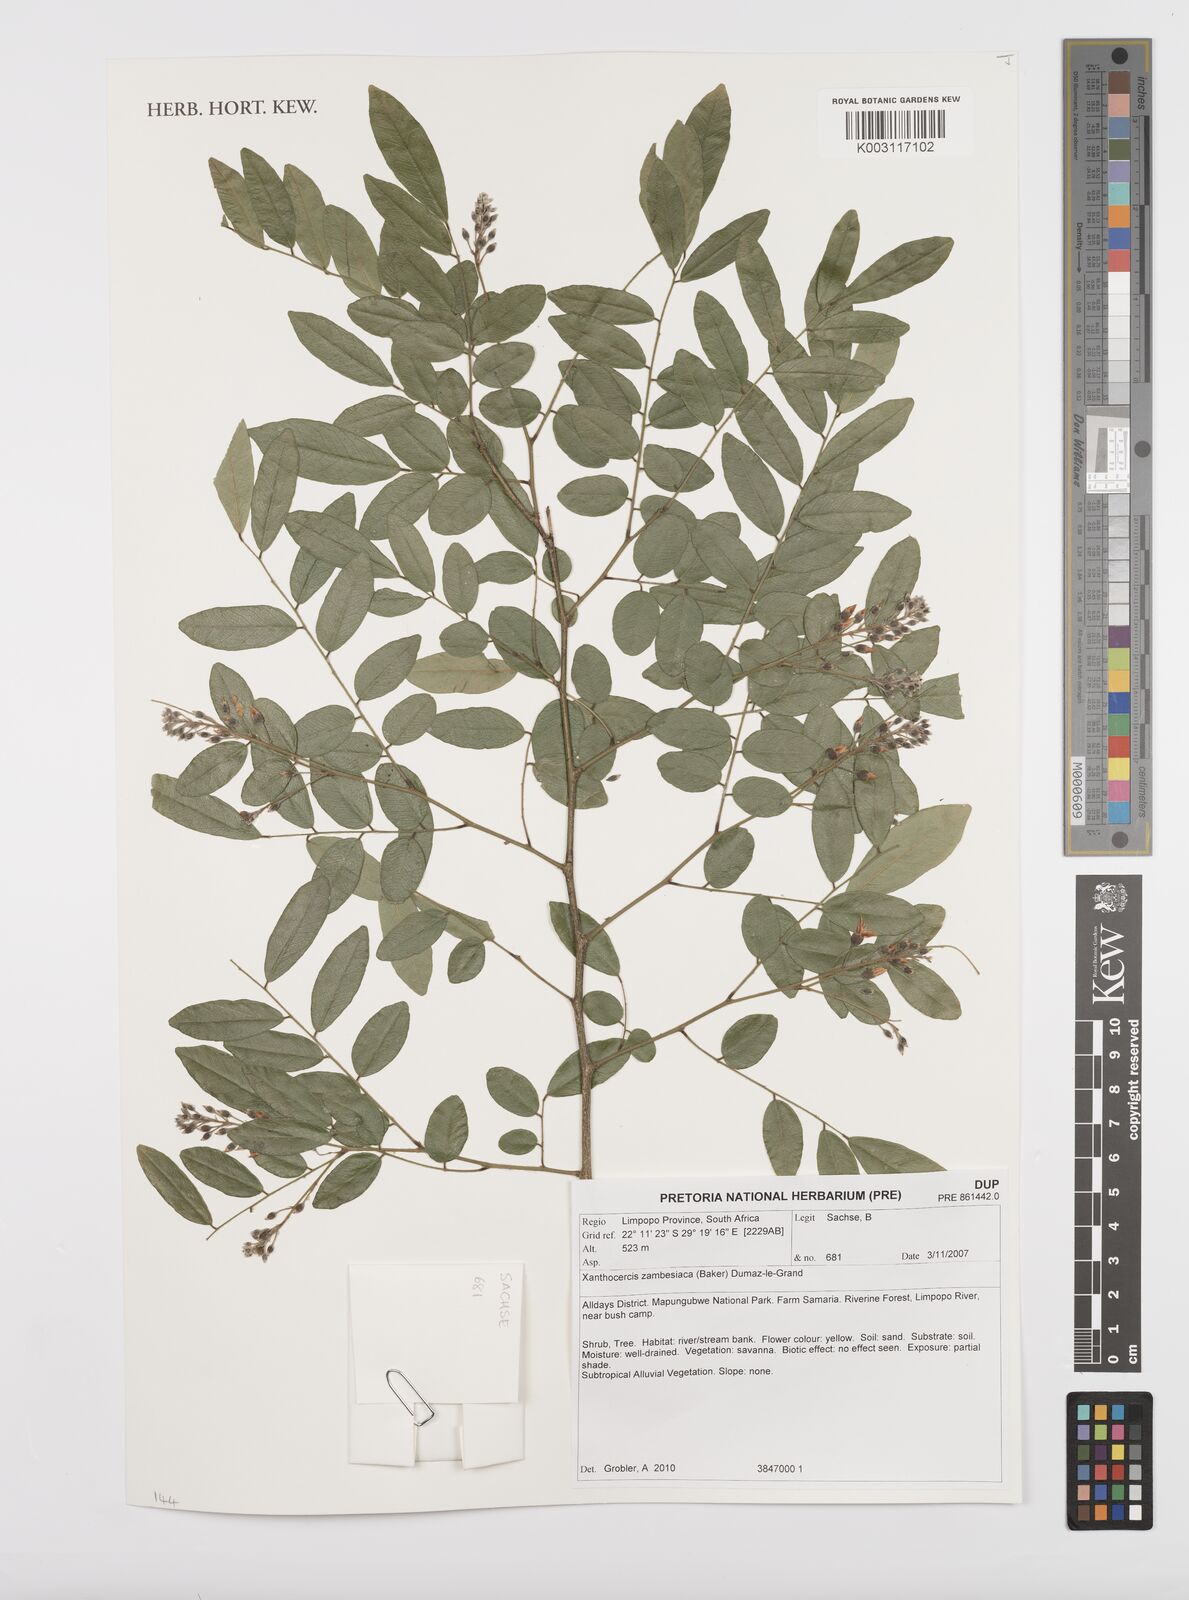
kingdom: Plantae
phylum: Tracheophyta
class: Magnoliopsida
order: Fabales
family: Fabaceae
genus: Xanthocercis
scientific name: Xanthocercis zambesiaca
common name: Nyala-tree
